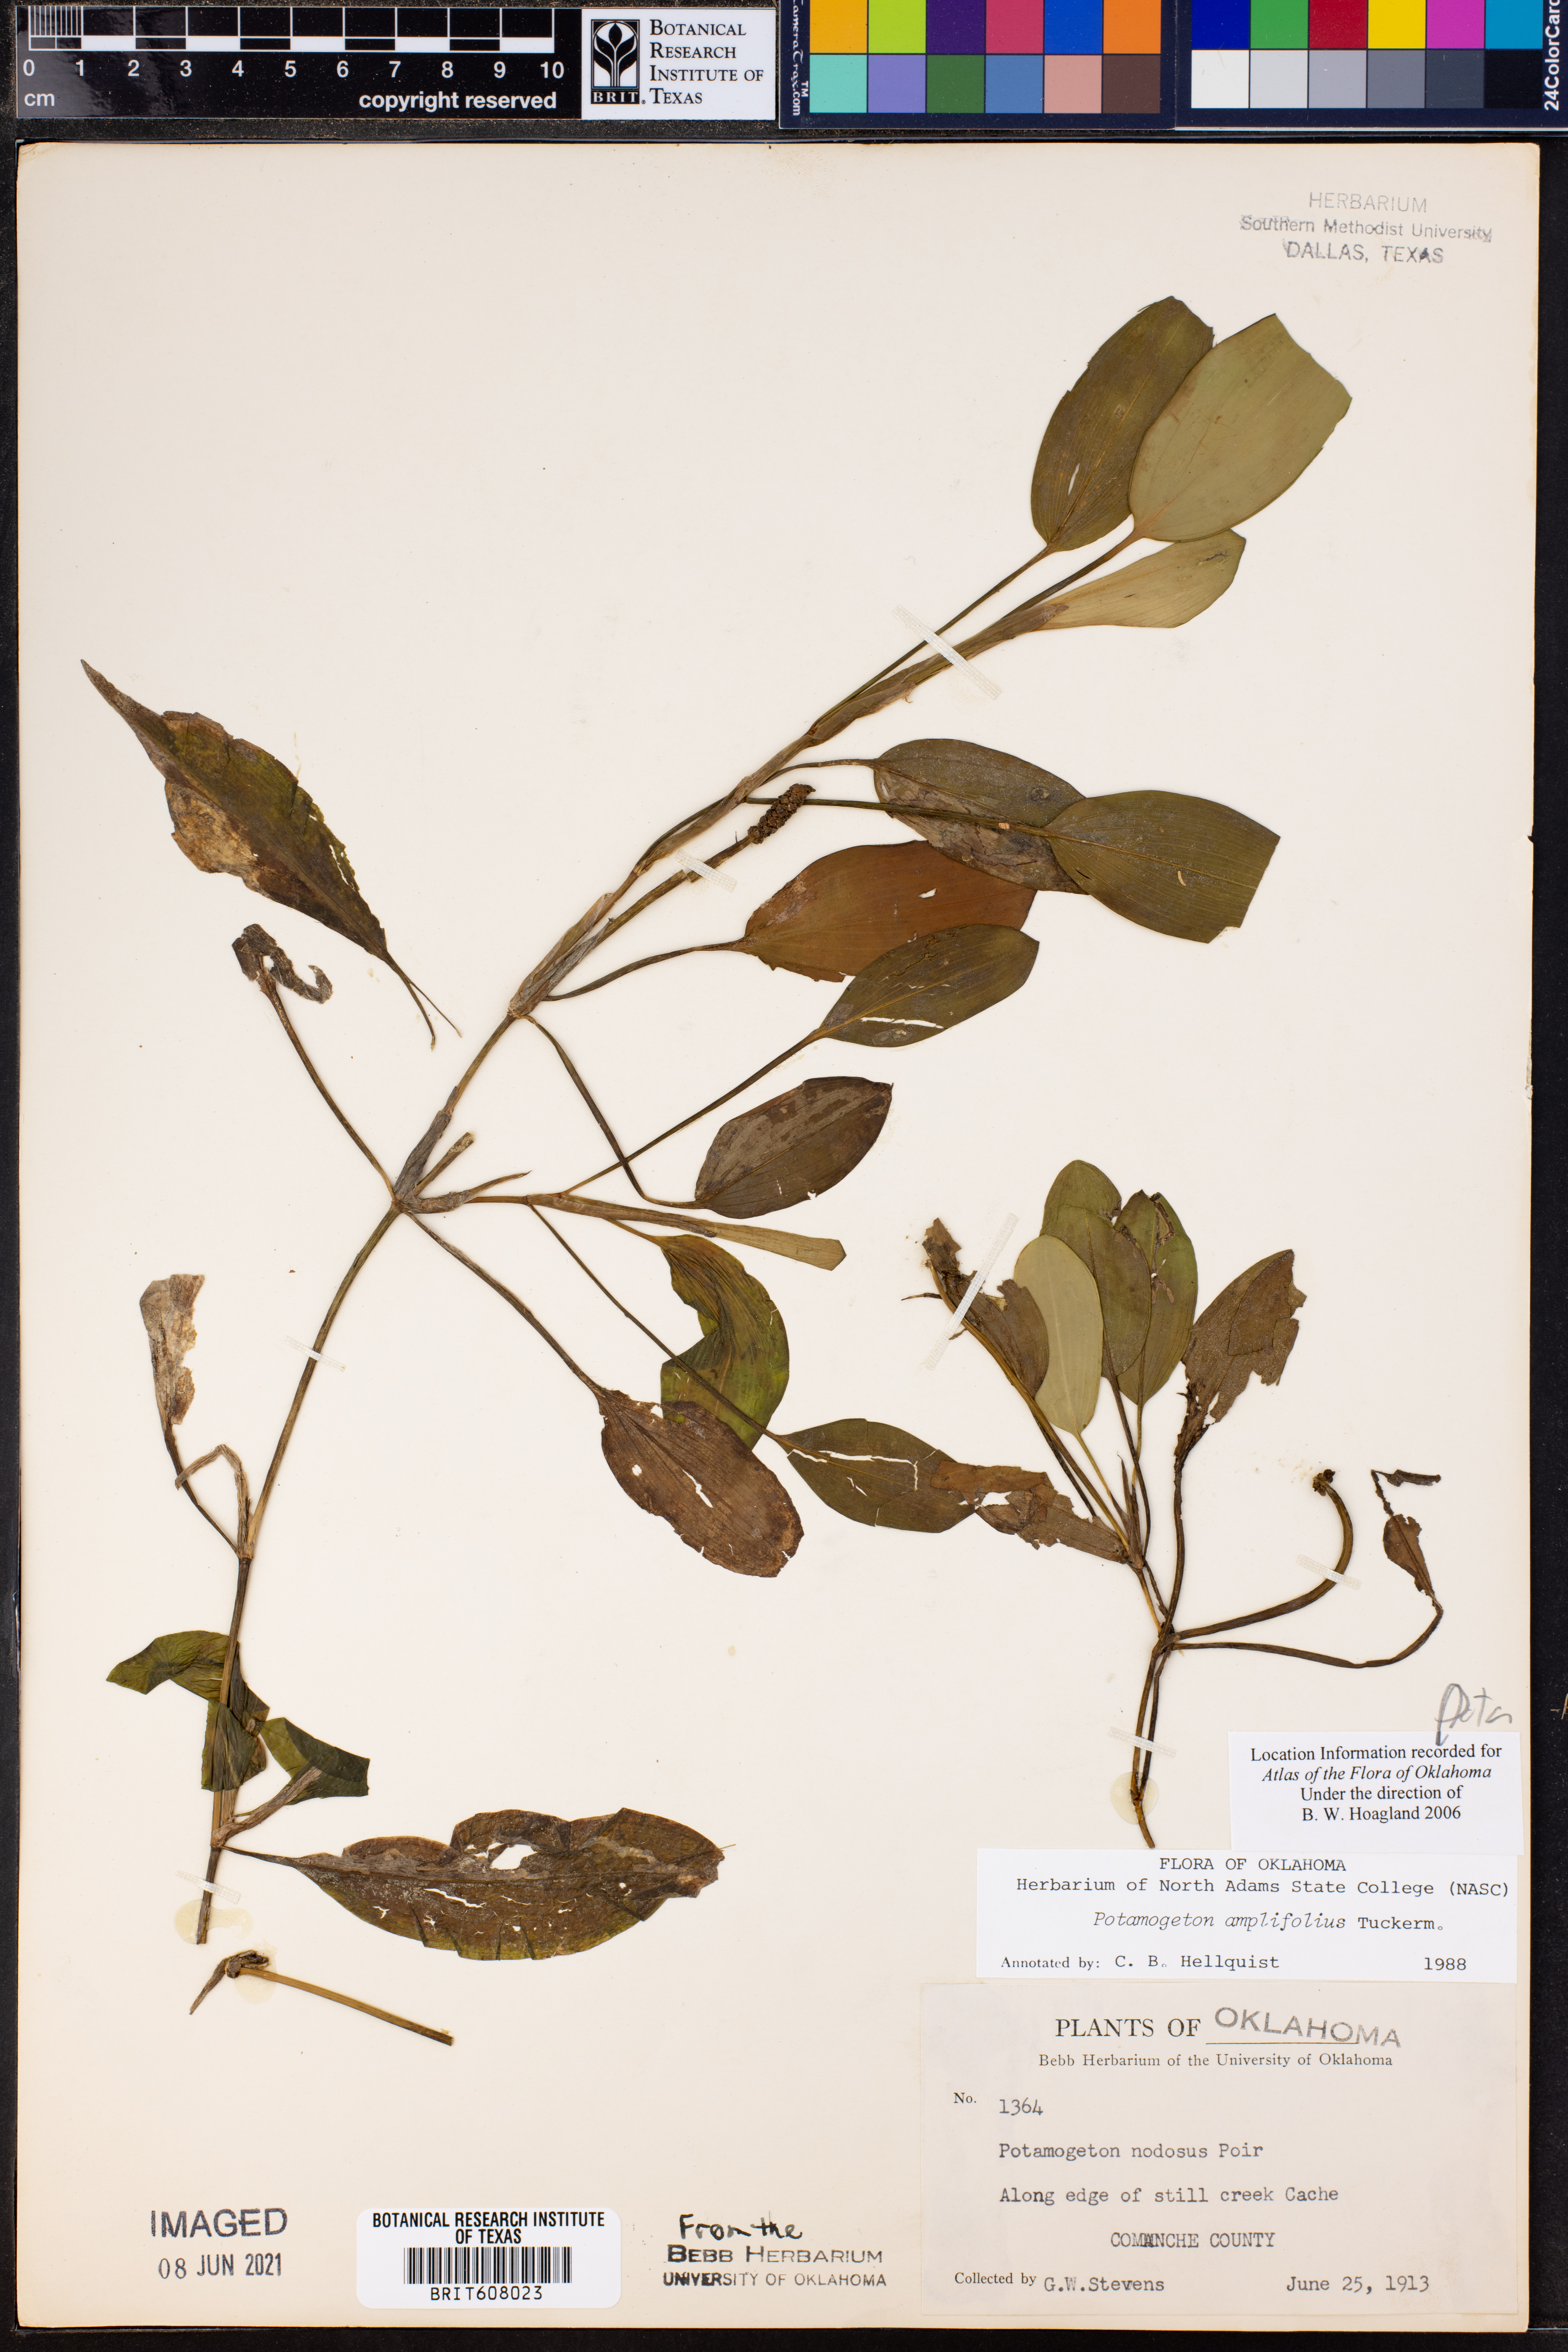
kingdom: Plantae
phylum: Tracheophyta
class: Liliopsida
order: Alismatales
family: Potamogetonaceae
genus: Potamogeton
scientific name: Potamogeton amplifolius
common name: Broad-leaved pondweed
